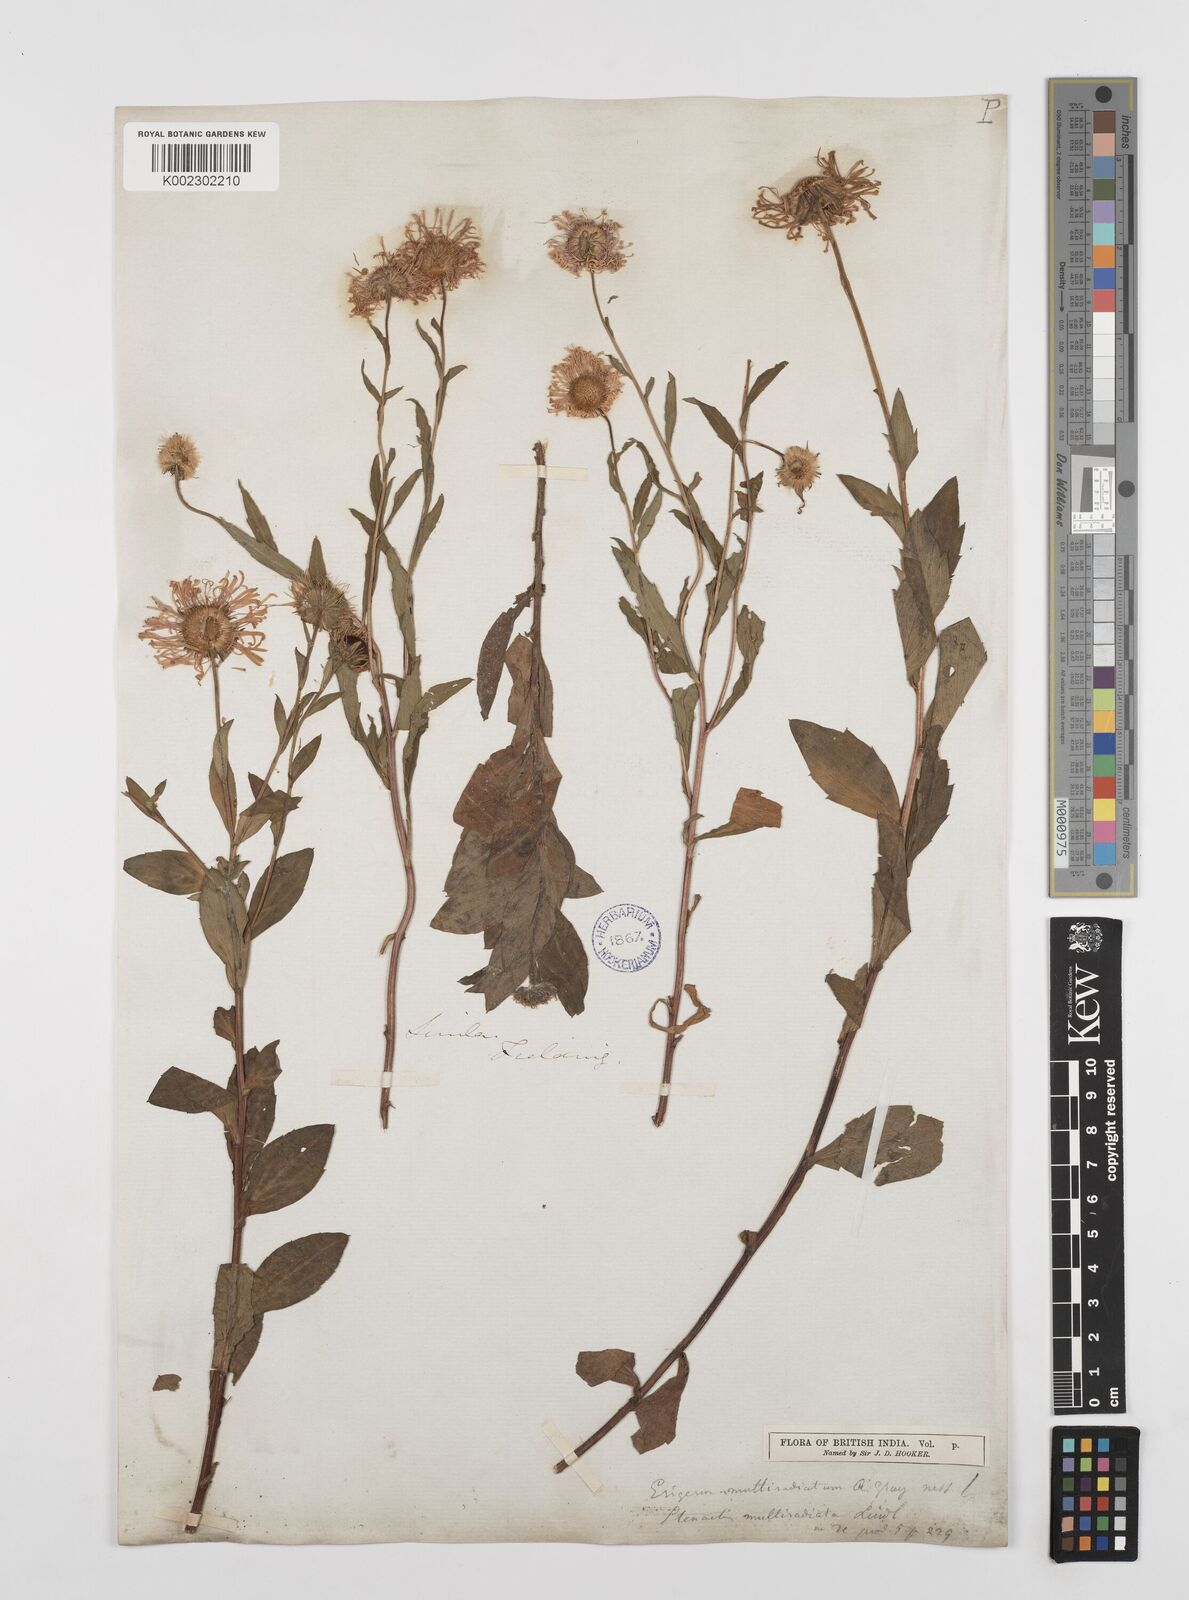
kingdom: Plantae
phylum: Tracheophyta
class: Magnoliopsida
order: Asterales
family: Asteraceae
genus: Erigeron
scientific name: Erigeron multiradiatus
